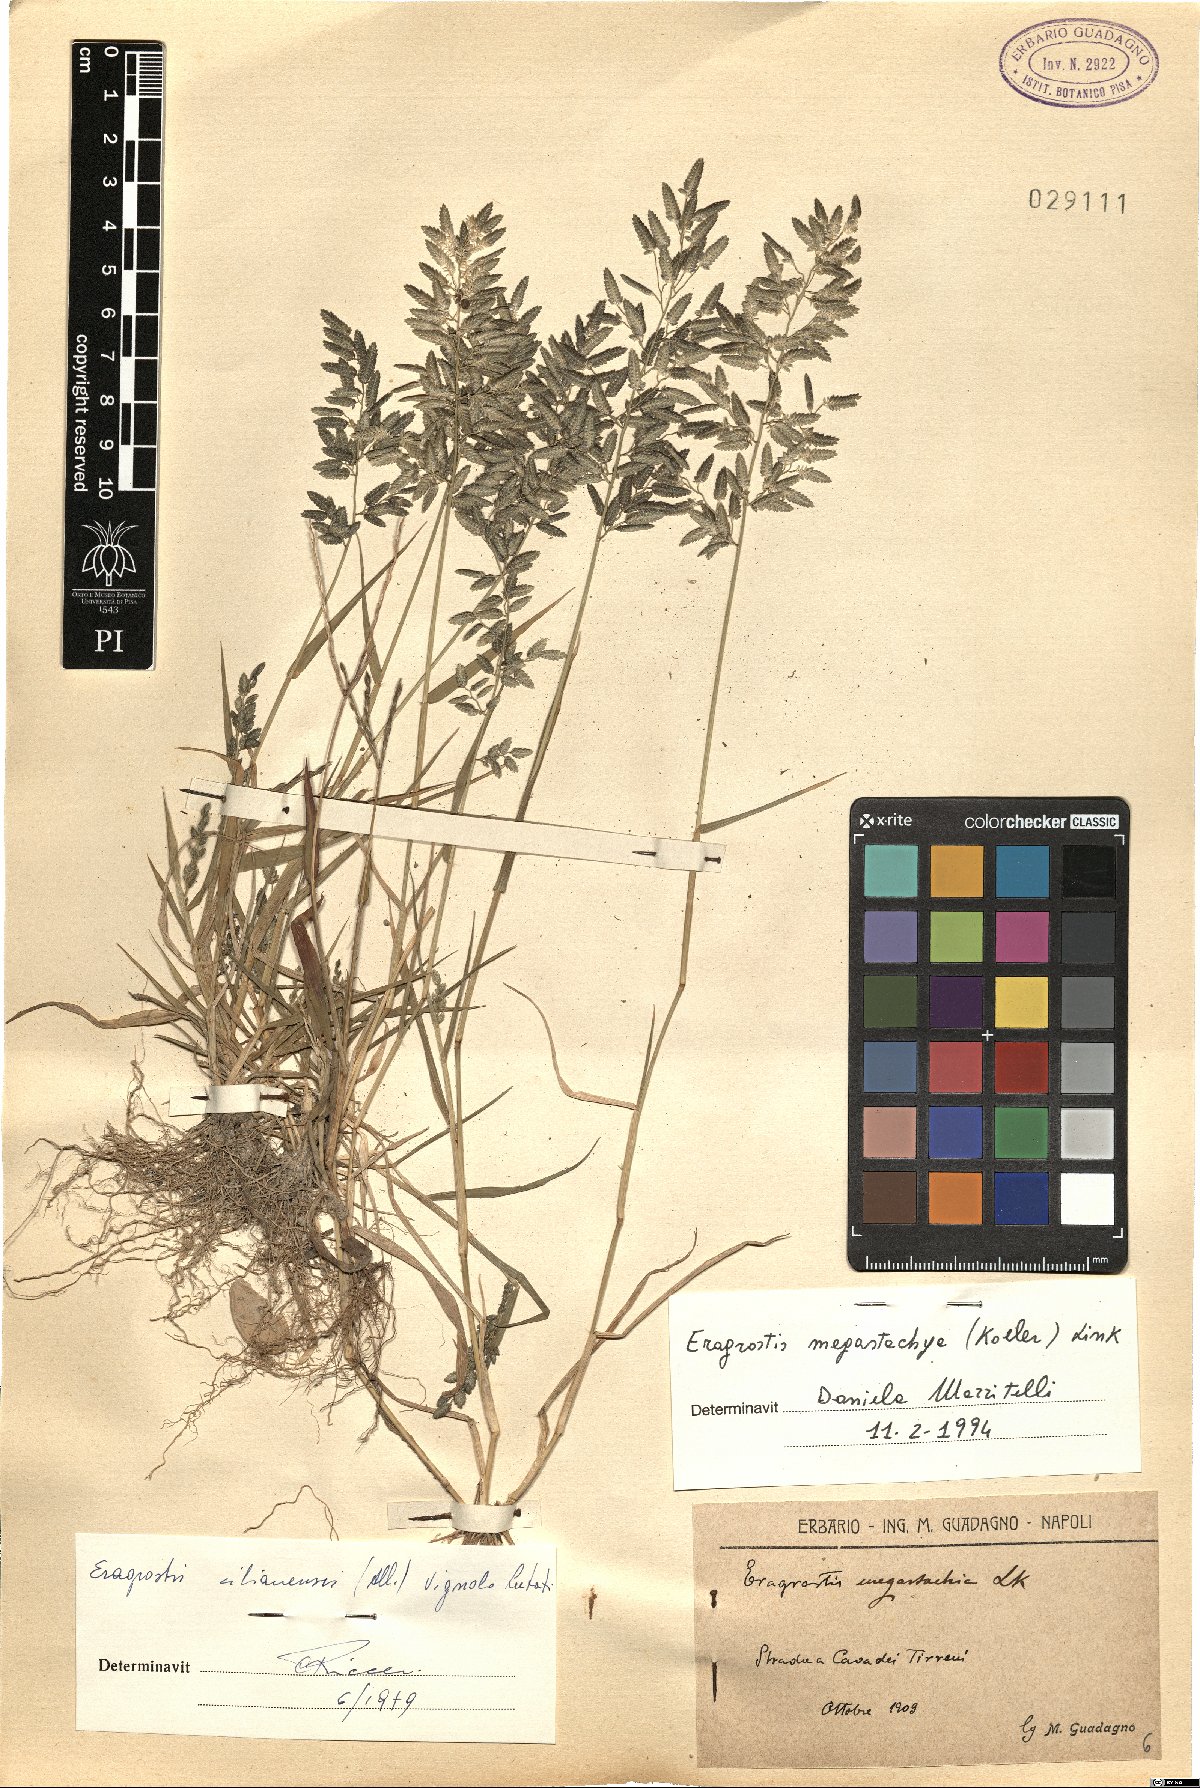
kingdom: Plantae
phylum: Tracheophyta
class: Liliopsida
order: Poales
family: Poaceae
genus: Eragrostis
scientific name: Eragrostis cilianensis
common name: Stinkgrass
